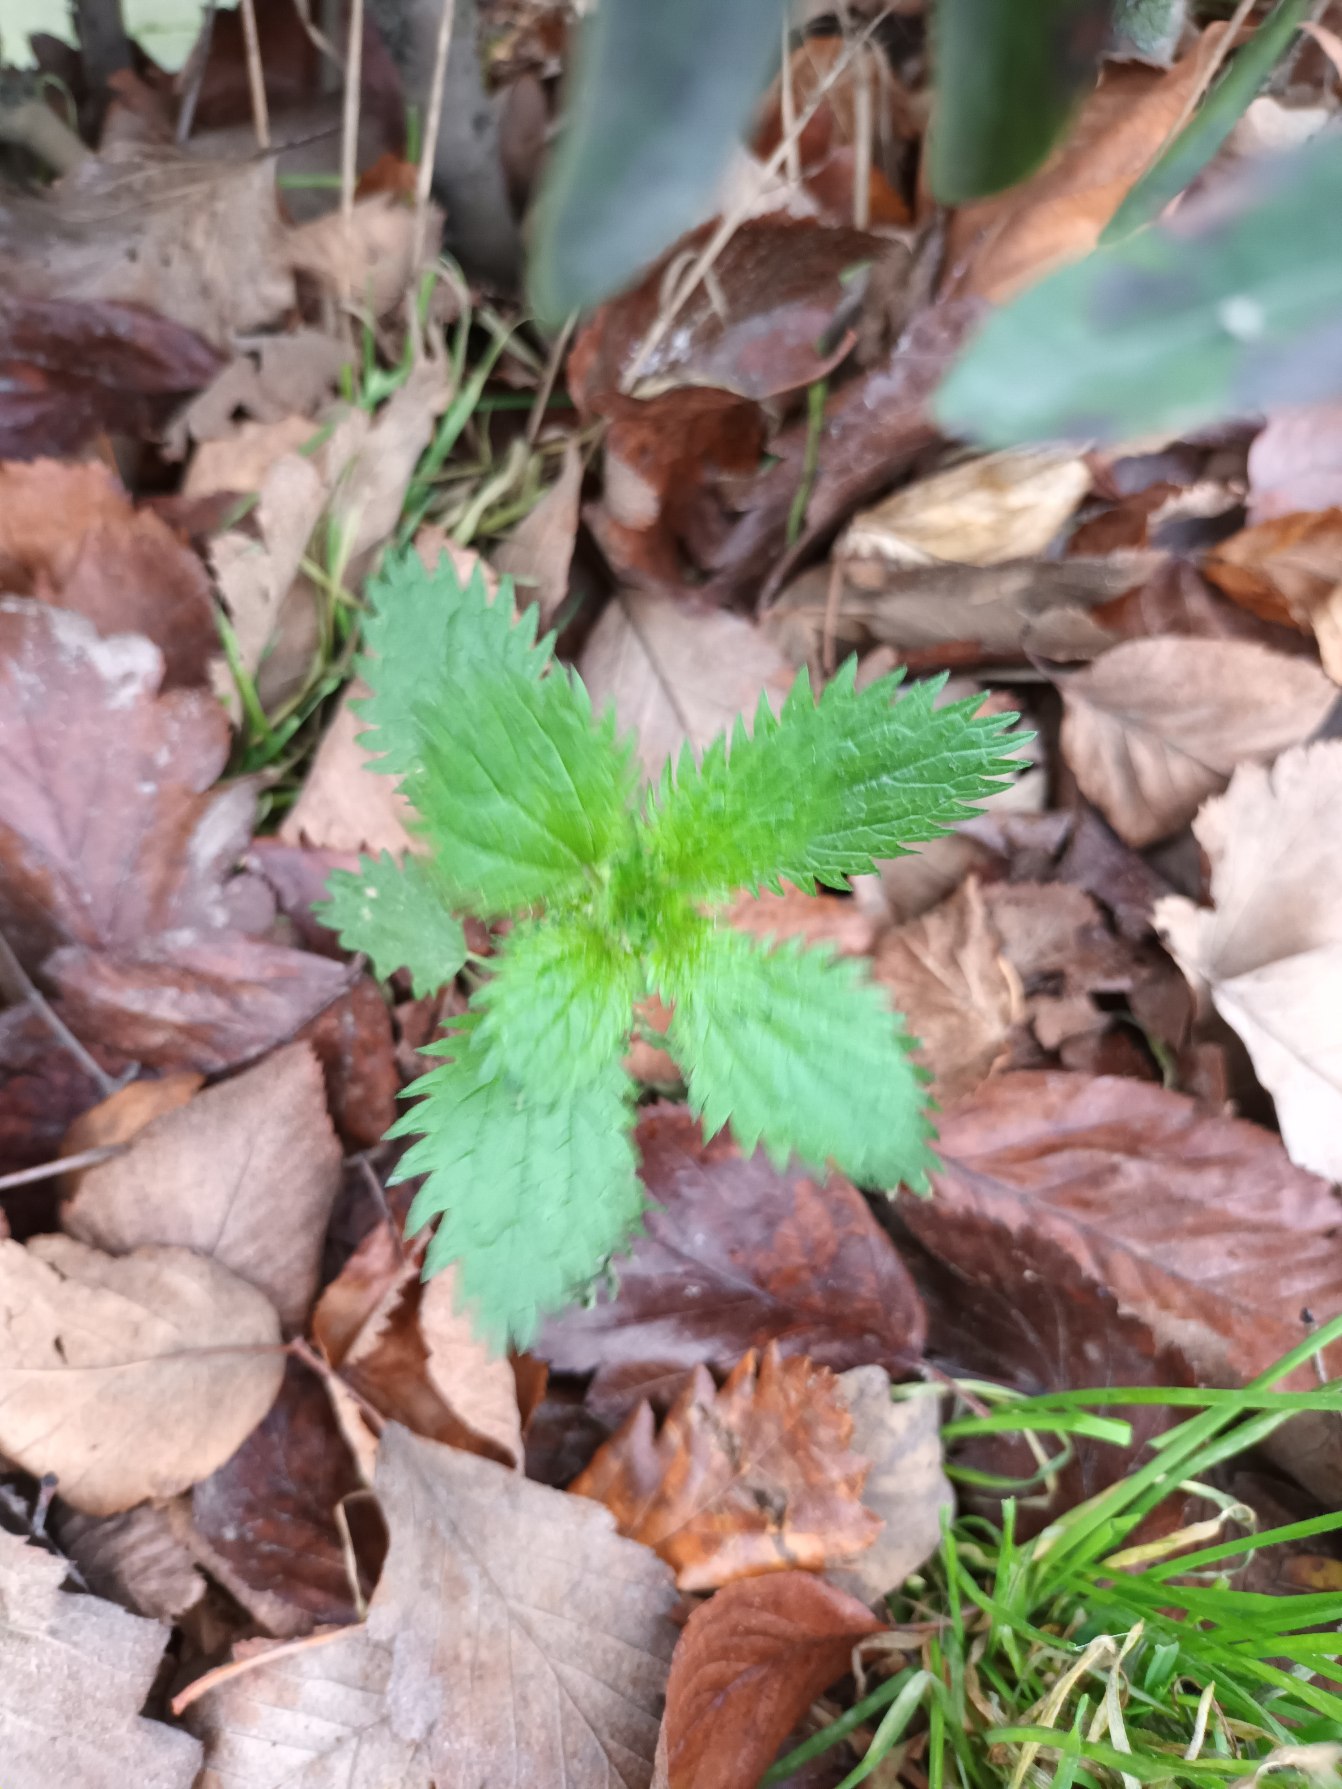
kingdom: Plantae
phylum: Tracheophyta
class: Magnoliopsida
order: Rosales
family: Urticaceae
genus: Urtica
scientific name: Urtica urens
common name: Liden nælde
